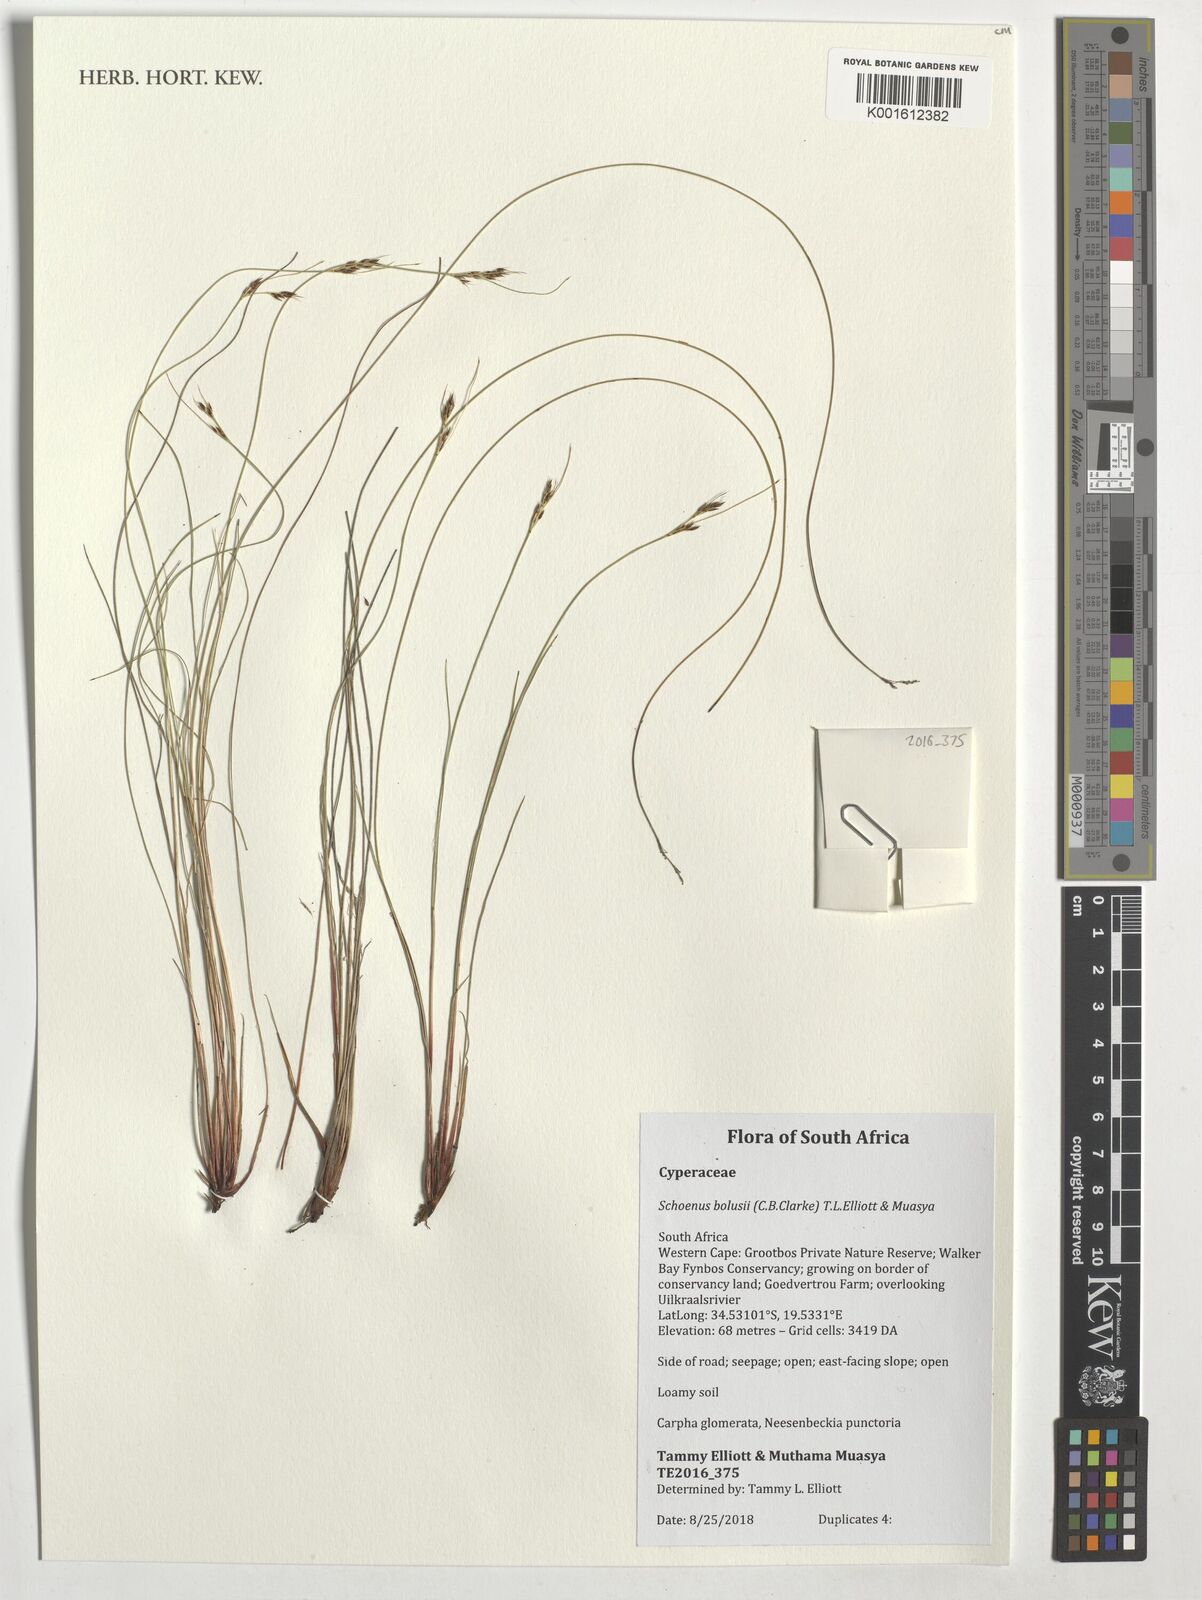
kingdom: Plantae
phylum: Tracheophyta
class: Liliopsida
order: Poales
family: Cyperaceae
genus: Schoenus
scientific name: Schoenus bolusii
